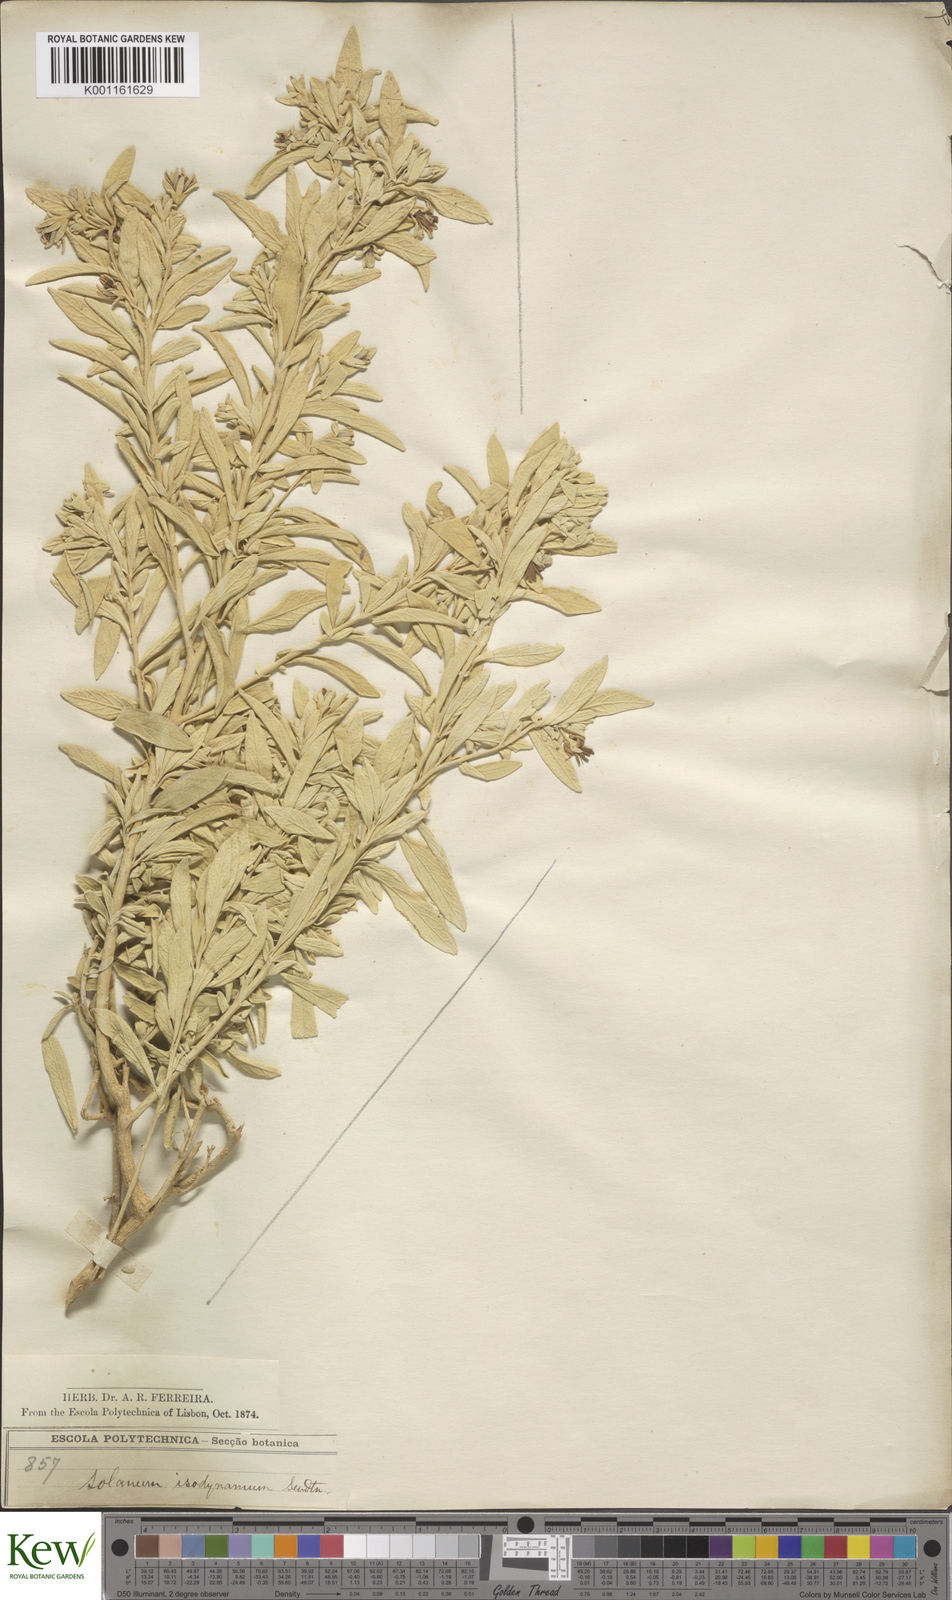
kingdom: Plantae
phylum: Tracheophyta
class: Magnoliopsida
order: Solanales
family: Solanaceae
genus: Solanum
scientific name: Solanum isodynamum
